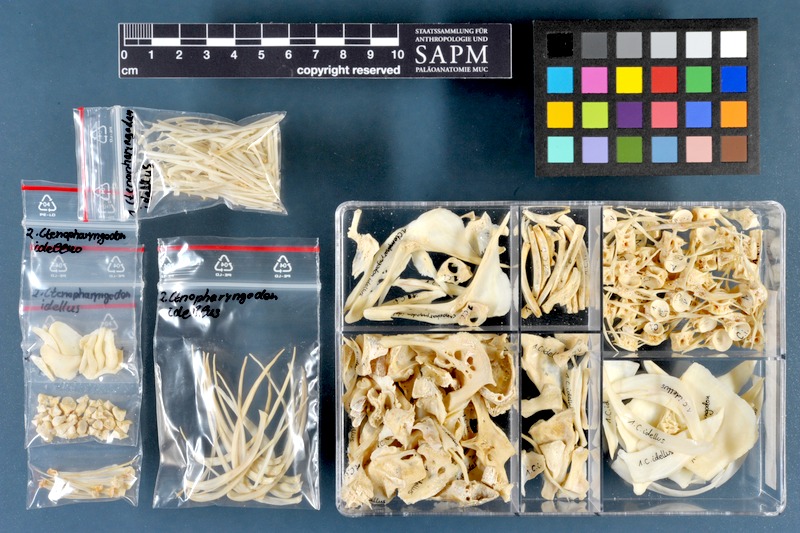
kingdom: Animalia
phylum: Chordata
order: Cypriniformes
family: Cyprinidae
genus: Ctenopharyngodon
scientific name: Ctenopharyngodon idella
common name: Grass carp
